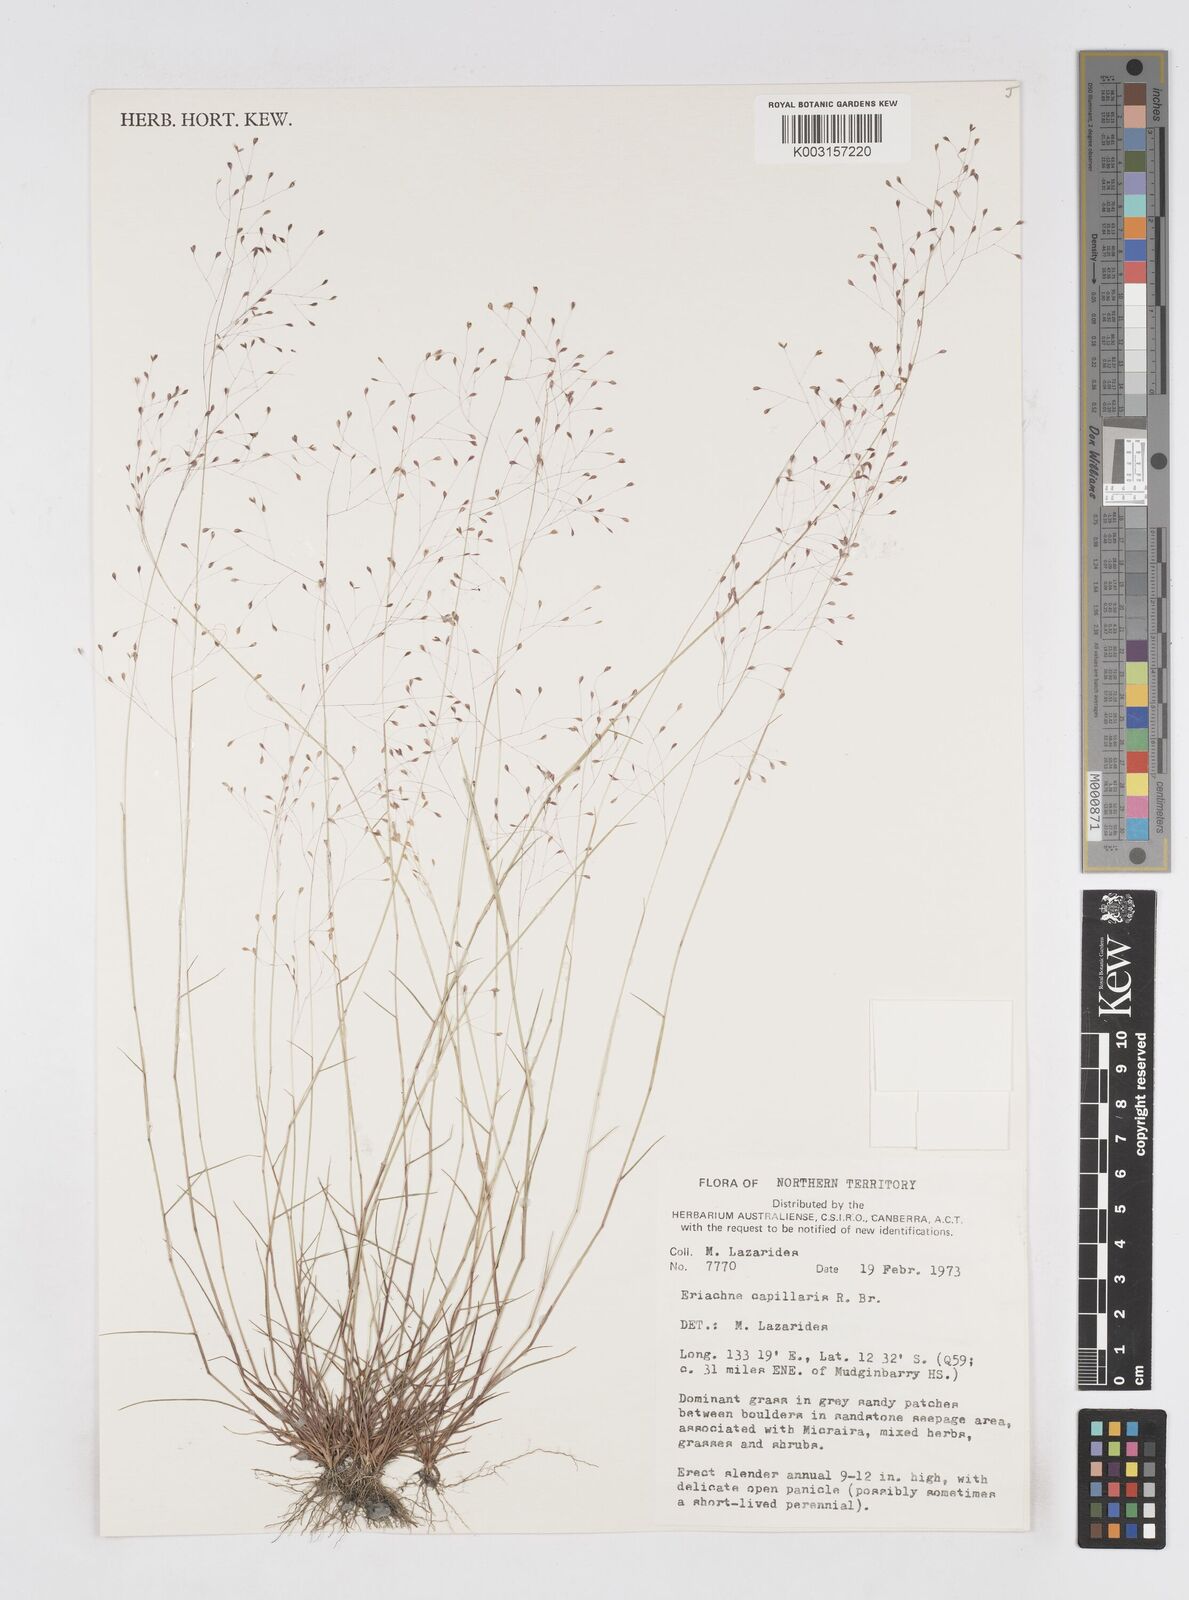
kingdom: Plantae
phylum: Tracheophyta
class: Liliopsida
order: Poales
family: Poaceae
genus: Eriachne
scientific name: Eriachne capillaris
